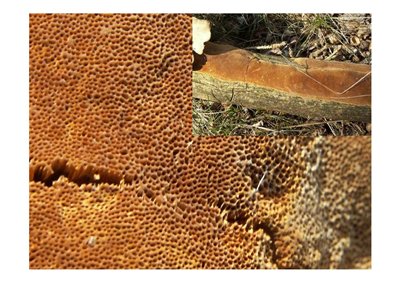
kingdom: Fungi
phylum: Basidiomycota
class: Agaricomycetes
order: Hymenochaetales
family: Hymenochaetaceae
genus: Fuscoporia
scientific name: Fuscoporia ferrea
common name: skorpe-ildporesvamp
